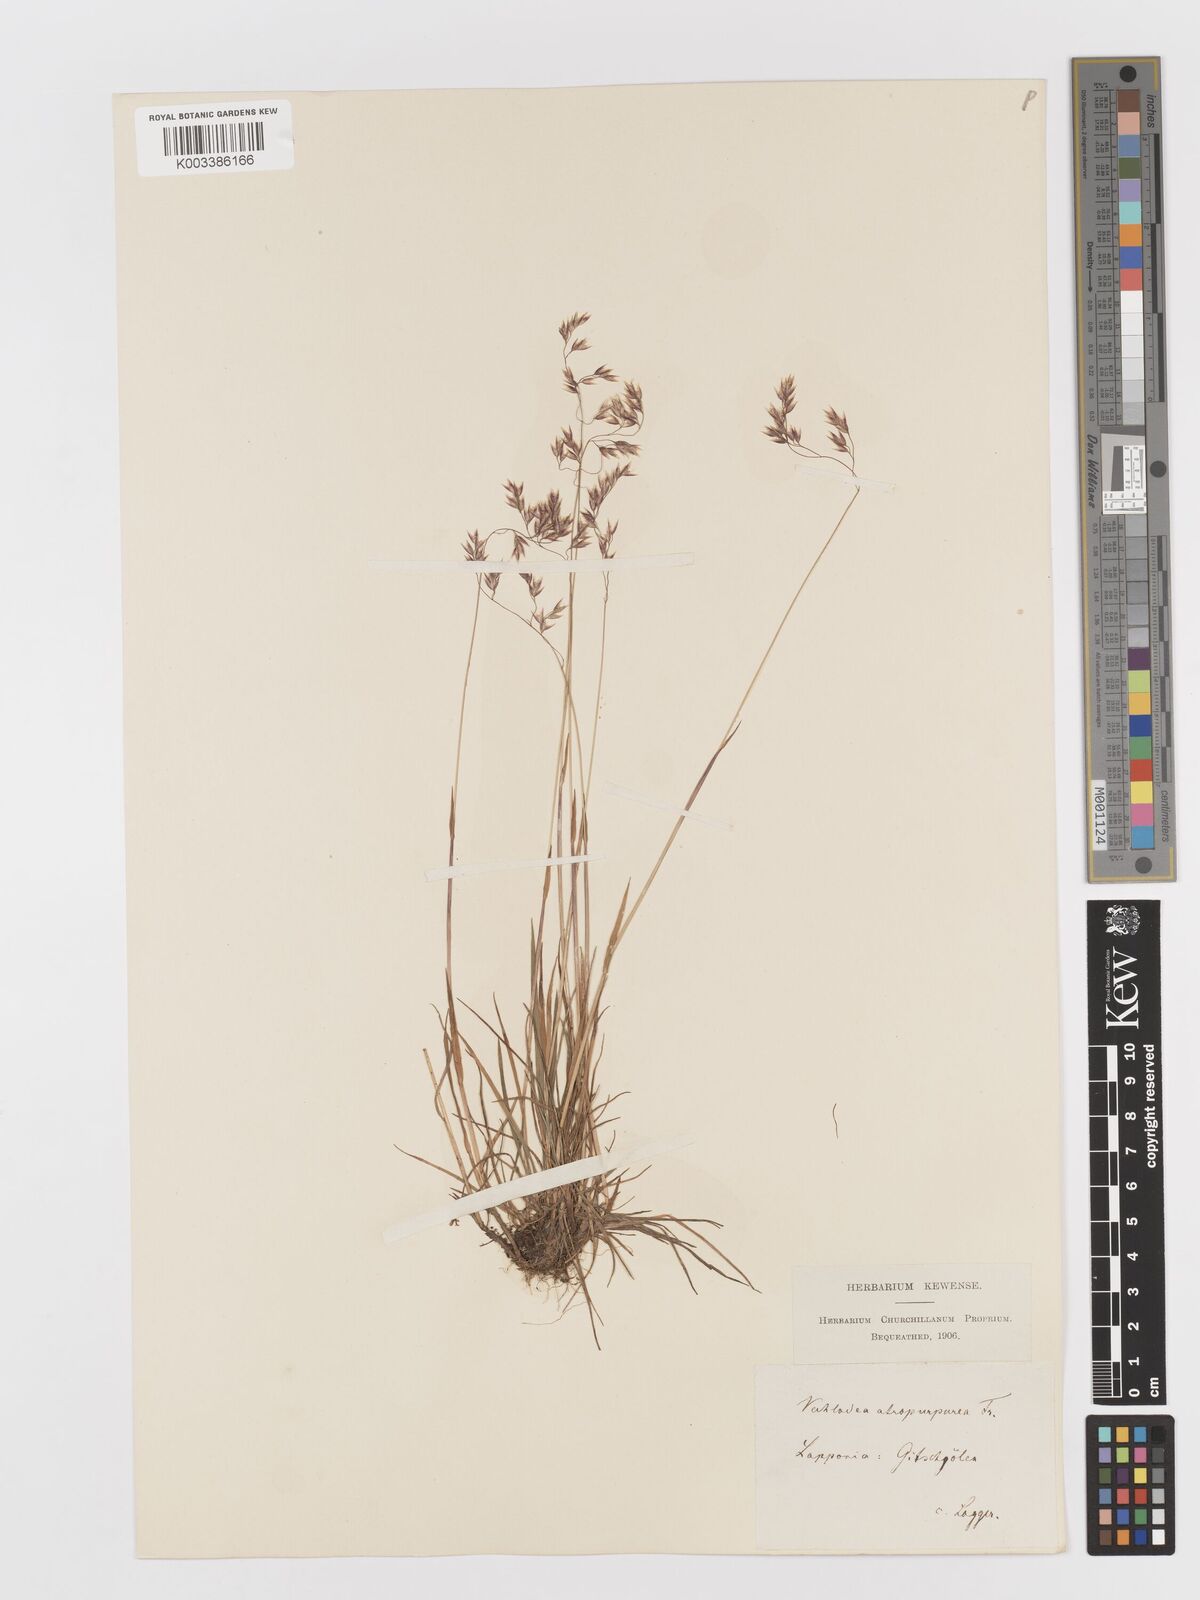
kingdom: Plantae
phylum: Tracheophyta
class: Liliopsida
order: Poales
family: Poaceae
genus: Vahlodea
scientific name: Vahlodea atropurpurea
